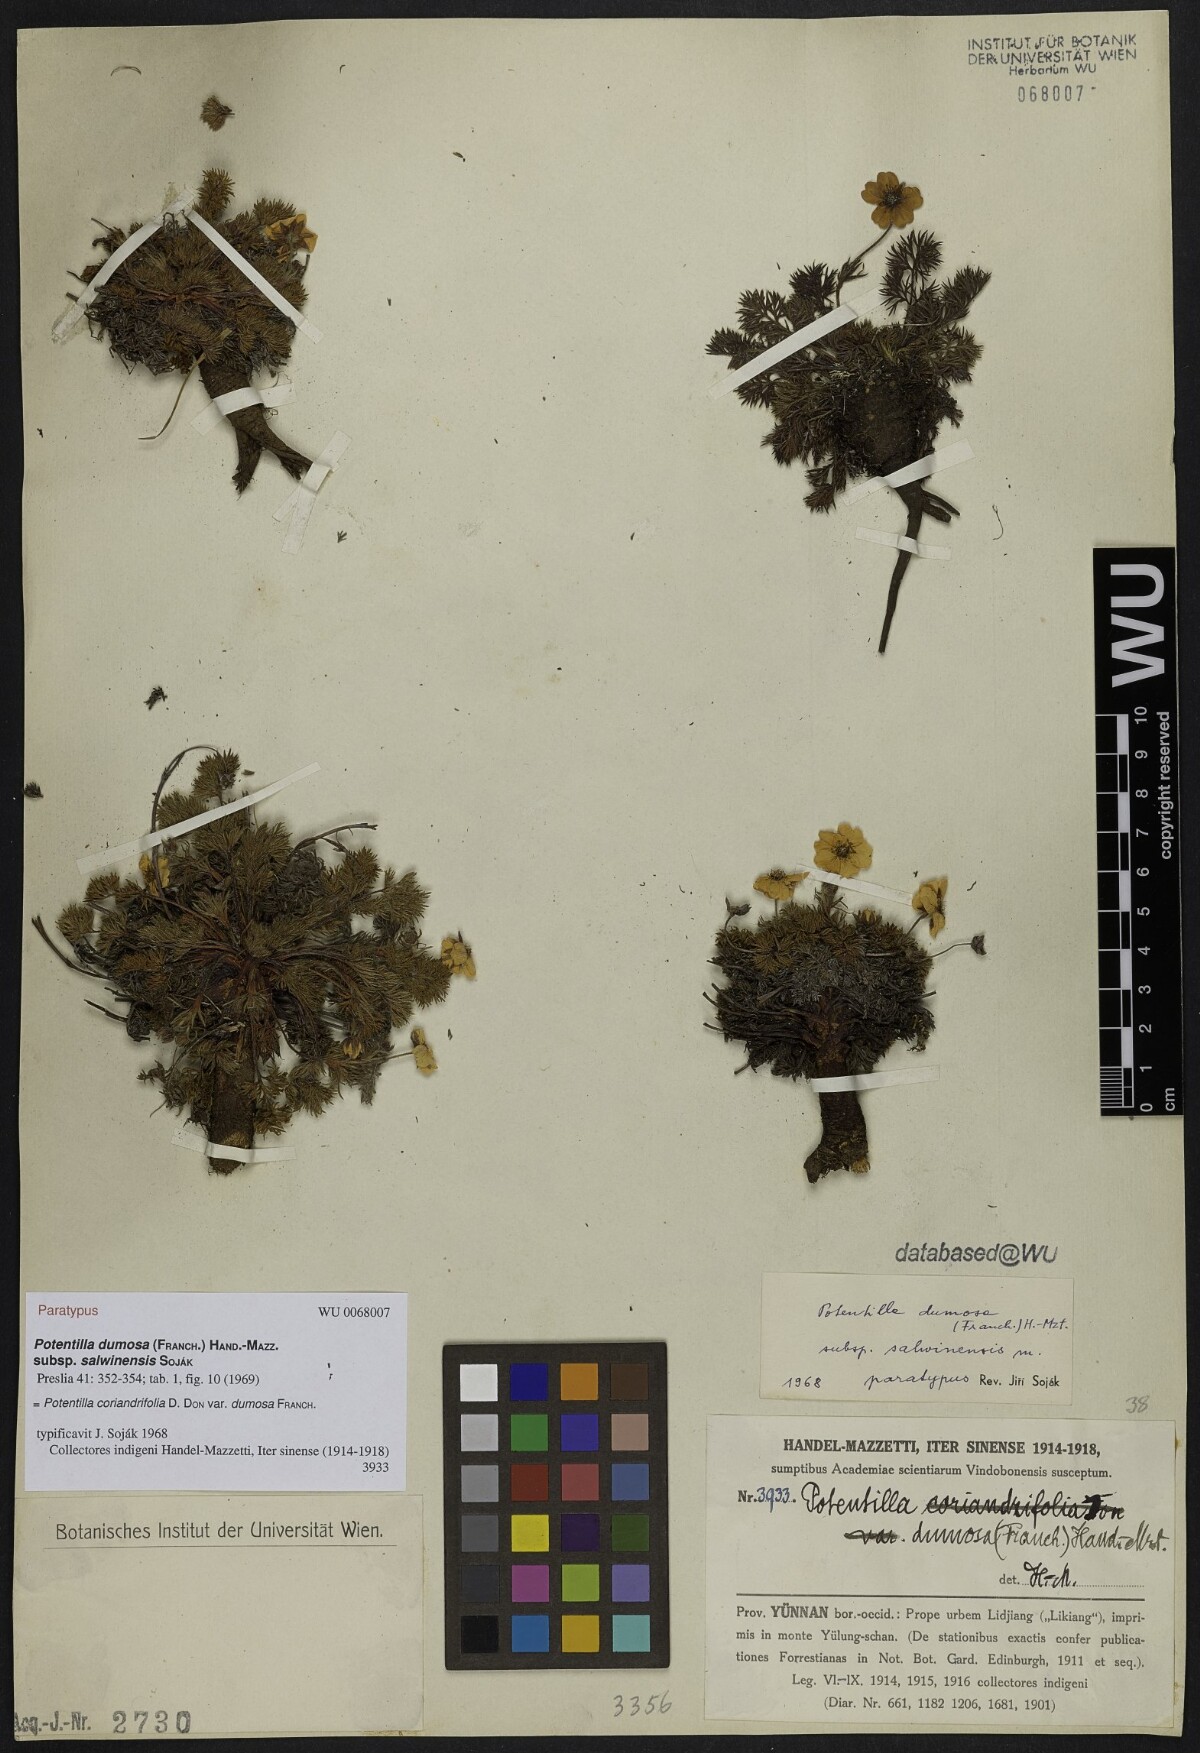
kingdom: Plantae
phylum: Tracheophyta
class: Magnoliopsida
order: Rosales
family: Rosaceae
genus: Potentilla
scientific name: Potentilla coriandrifolia
